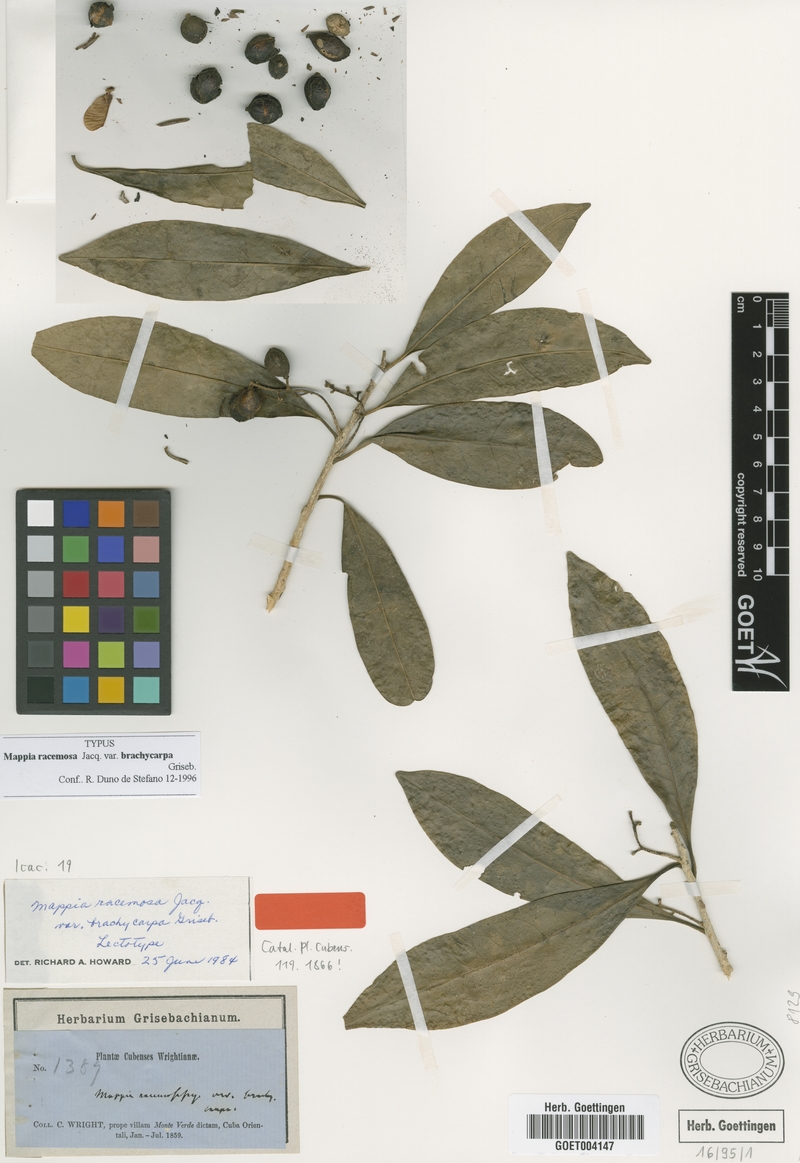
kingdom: Plantae
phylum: Tracheophyta
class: Magnoliopsida
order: Icacinales
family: Icacinaceae
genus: Mappia
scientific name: Mappia racemosa
